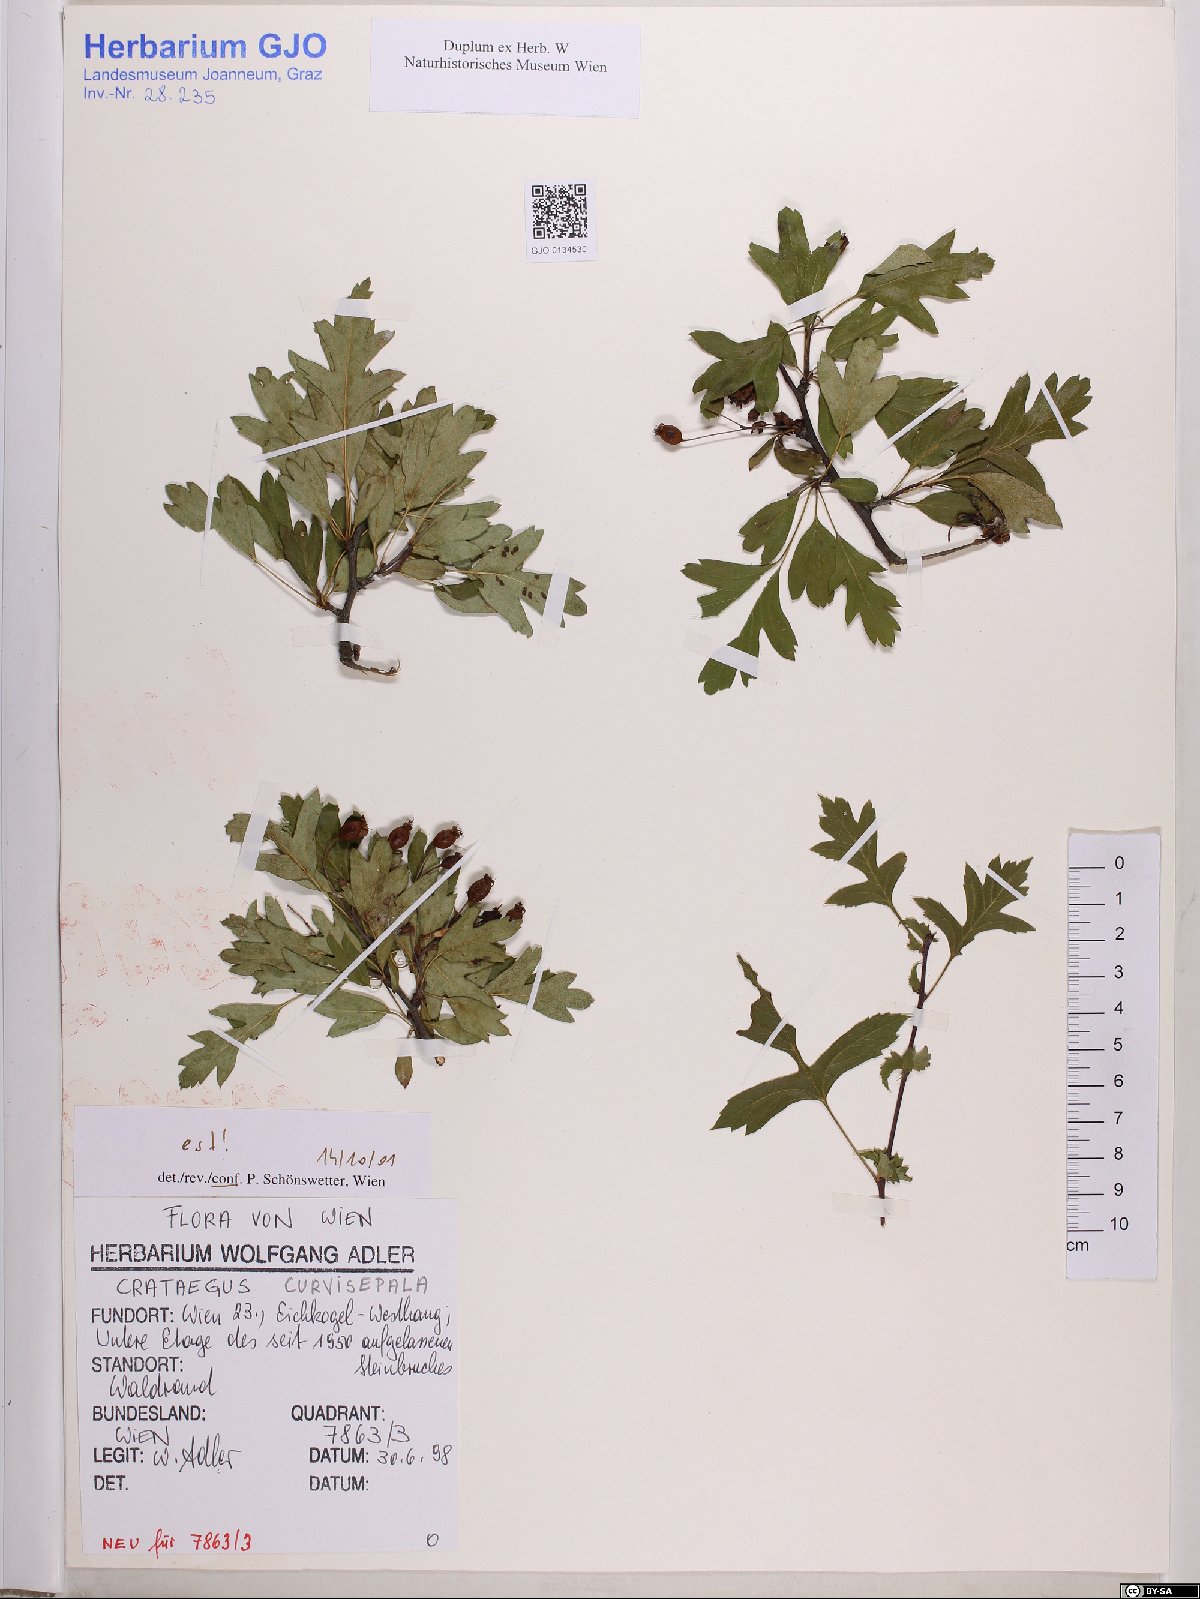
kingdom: Plantae
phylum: Tracheophyta
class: Magnoliopsida
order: Rosales
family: Rosaceae
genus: Crataegus
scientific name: Crataegus praemonticola
